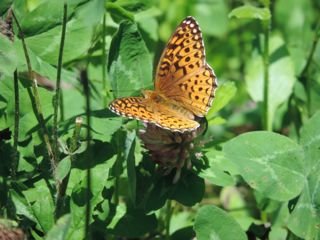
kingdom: Animalia
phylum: Arthropoda
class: Insecta
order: Lepidoptera
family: Nymphalidae
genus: Speyeria
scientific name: Speyeria atlantis
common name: Atlantis Fritillary
